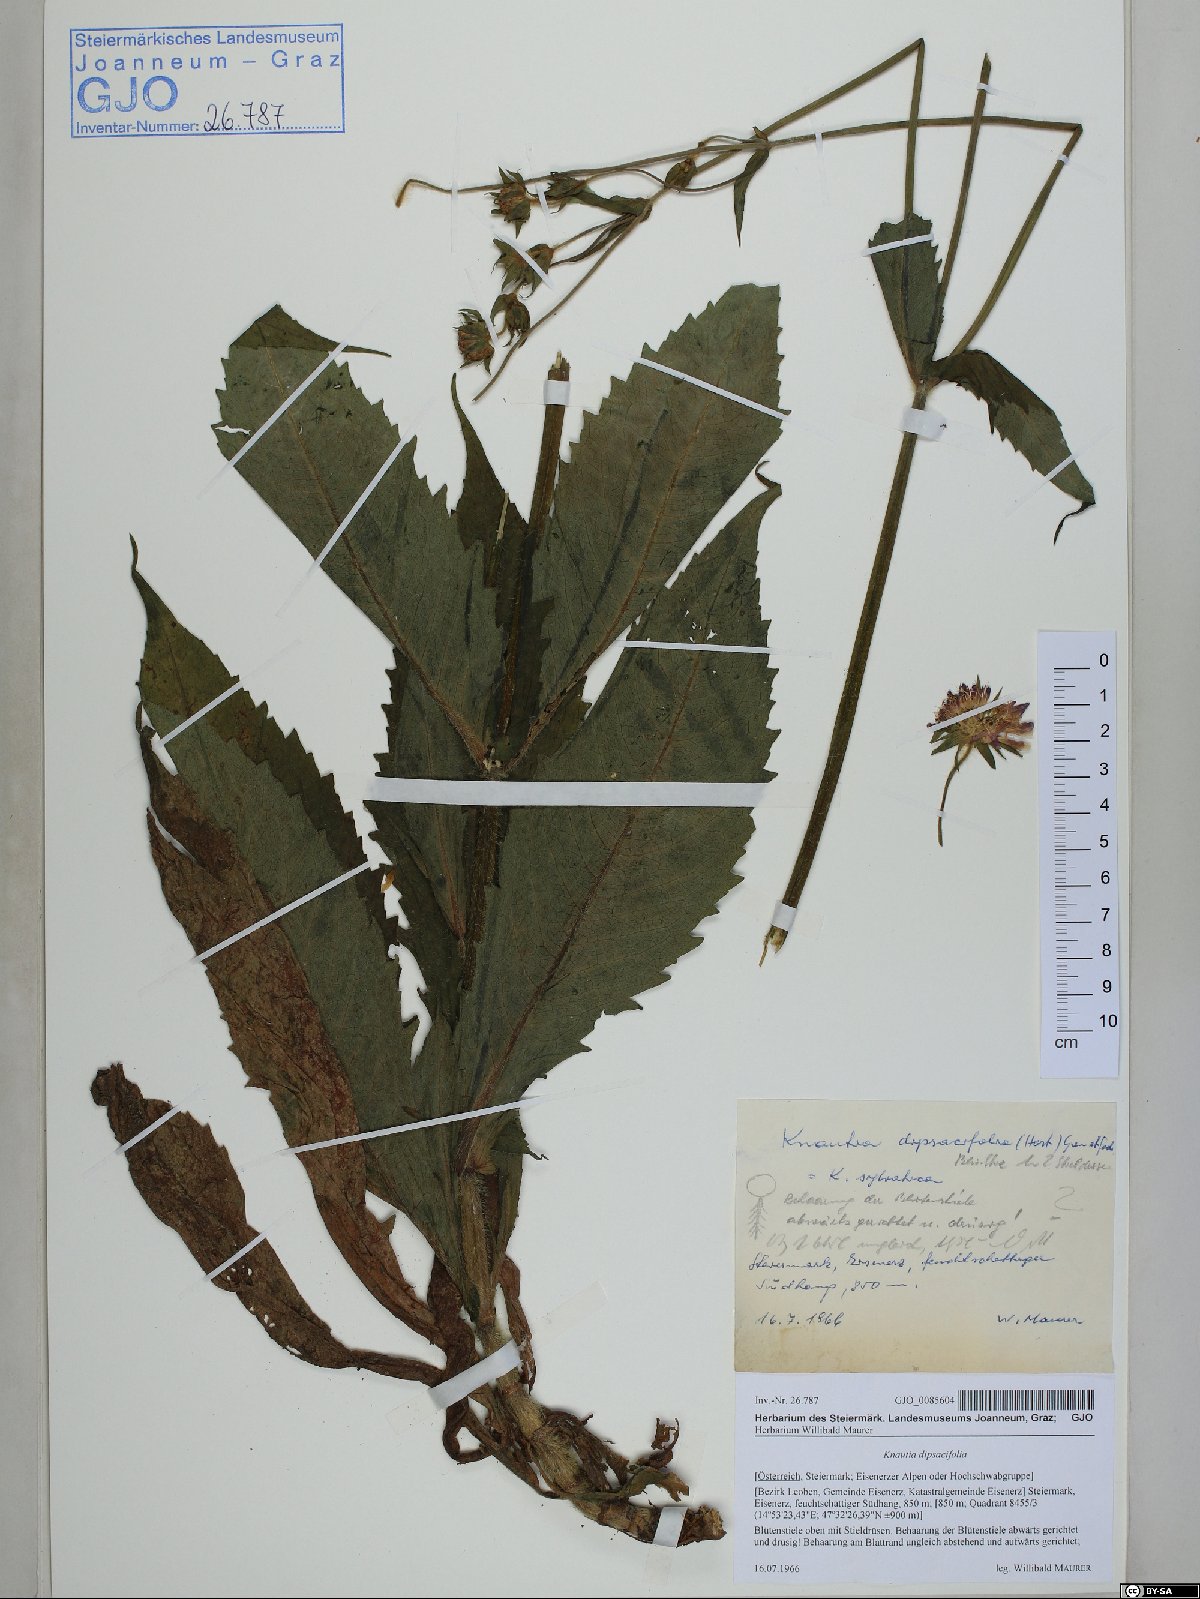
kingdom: Plantae
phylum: Tracheophyta
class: Magnoliopsida
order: Dipsacales
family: Caprifoliaceae
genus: Knautia
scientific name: Knautia dipsacifolia
